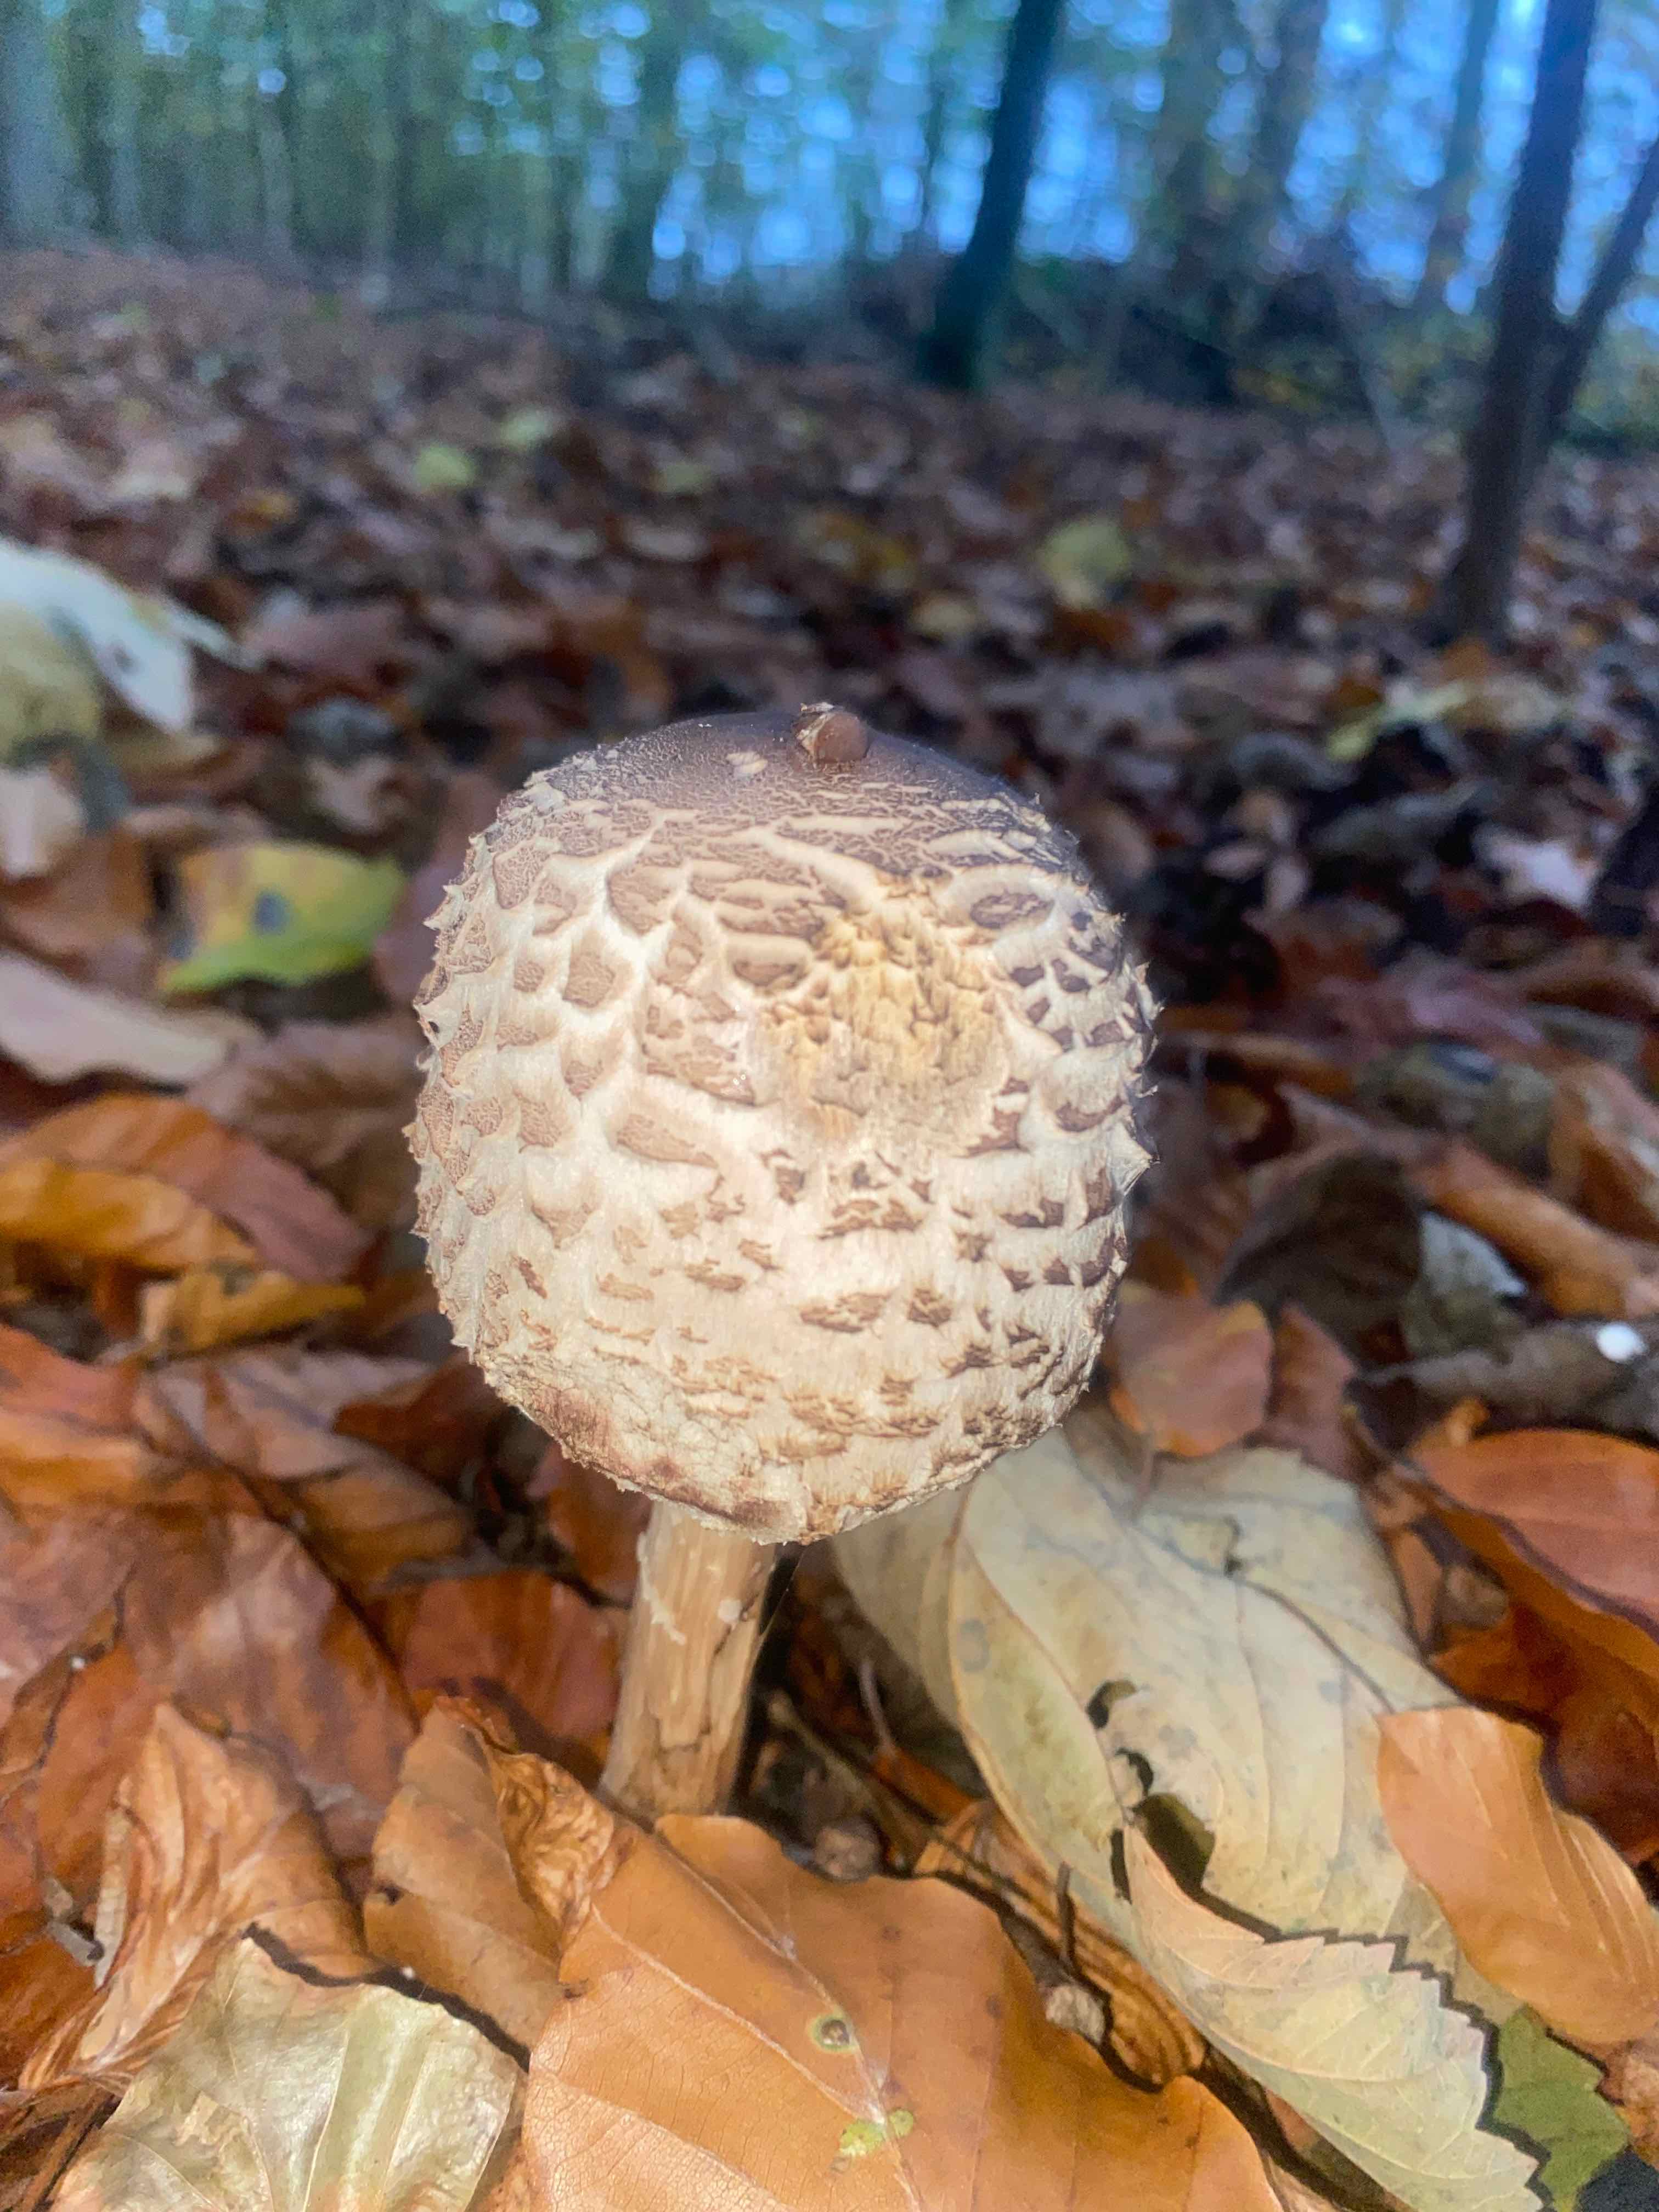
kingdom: Fungi
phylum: Basidiomycota
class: Agaricomycetes
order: Agaricales
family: Agaricaceae
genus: Chlorophyllum
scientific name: Chlorophyllum
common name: rabarberhat
